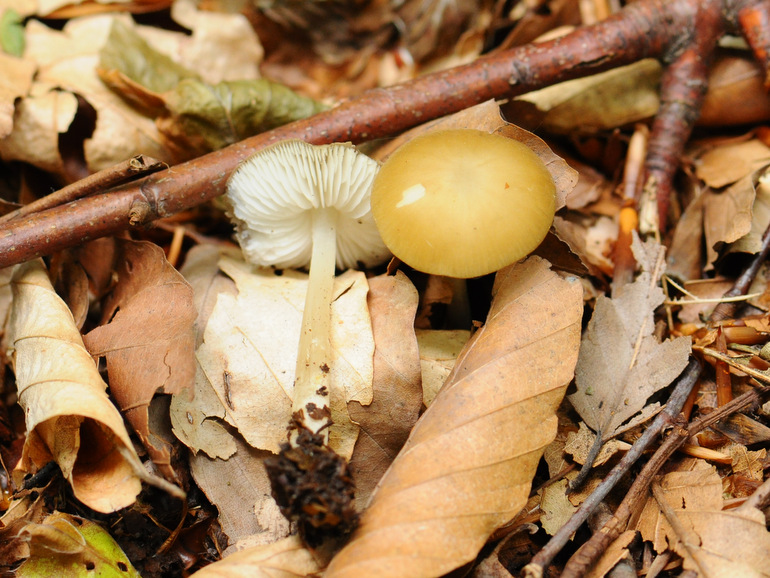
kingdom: Fungi
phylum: Basidiomycota
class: Agaricomycetes
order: Agaricales
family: Porotheleaceae
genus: Hydropodia
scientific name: Hydropodia subalpina
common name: vår-fnugfod
